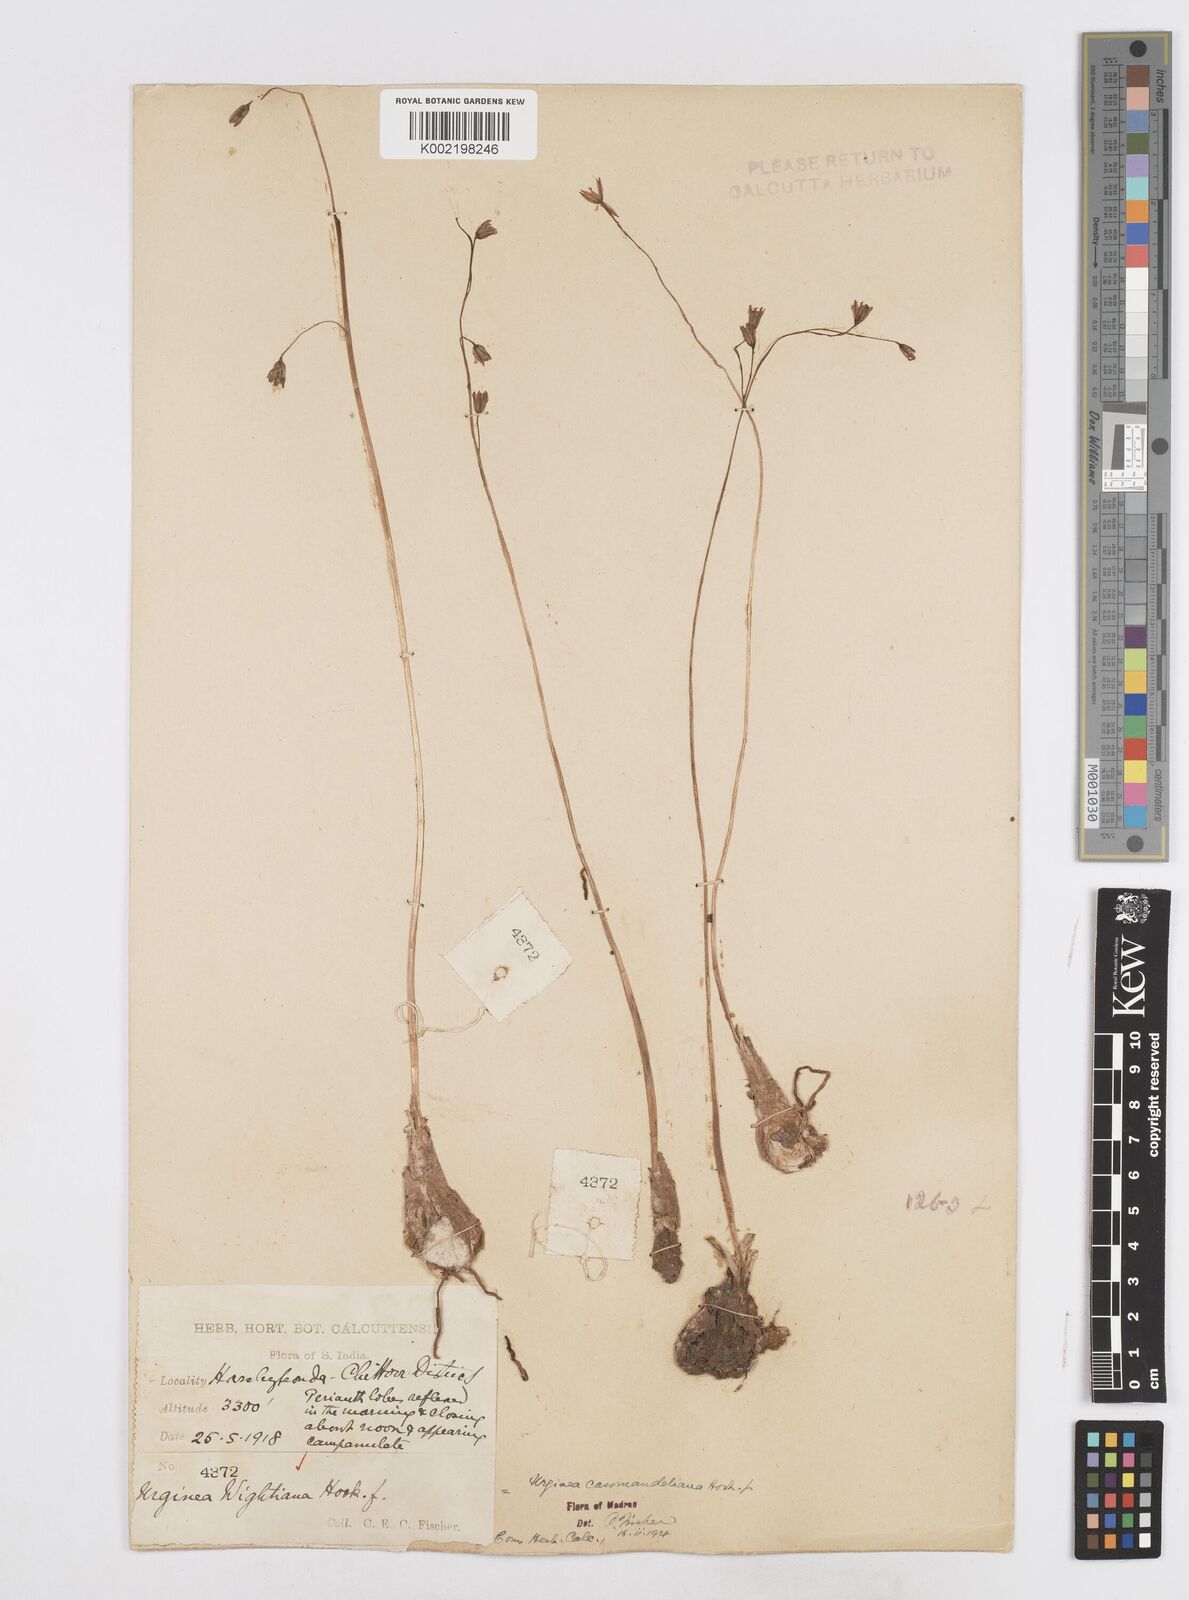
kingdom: Plantae
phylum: Tracheophyta
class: Liliopsida
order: Asparagales
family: Asparagaceae
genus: Drimia
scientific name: Drimia coromandeliana
